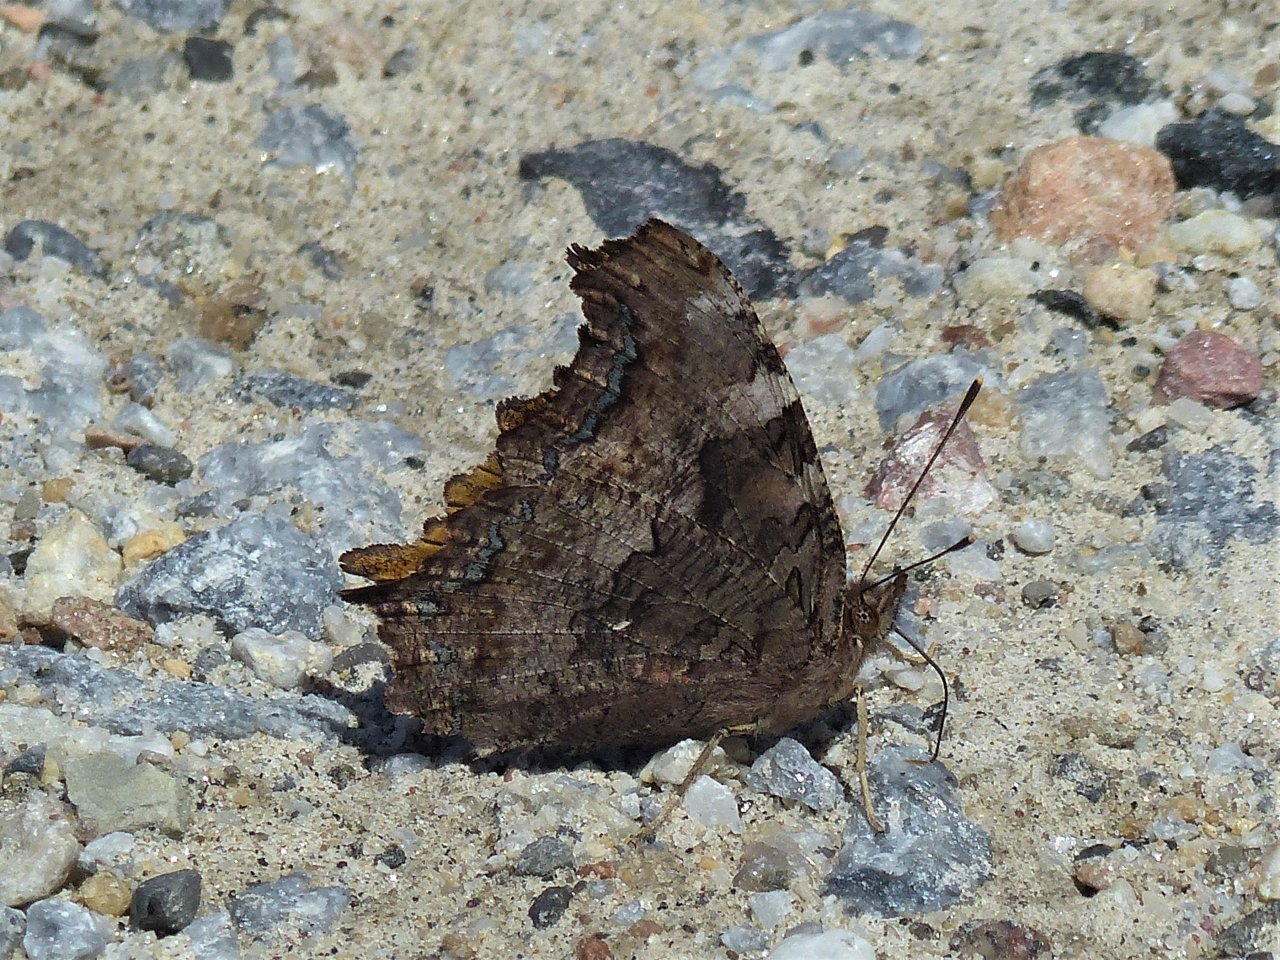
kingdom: Animalia
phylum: Arthropoda
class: Insecta
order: Lepidoptera
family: Nymphalidae
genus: Polygonia
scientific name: Polygonia vaualbum
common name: Compton Tortoiseshell
